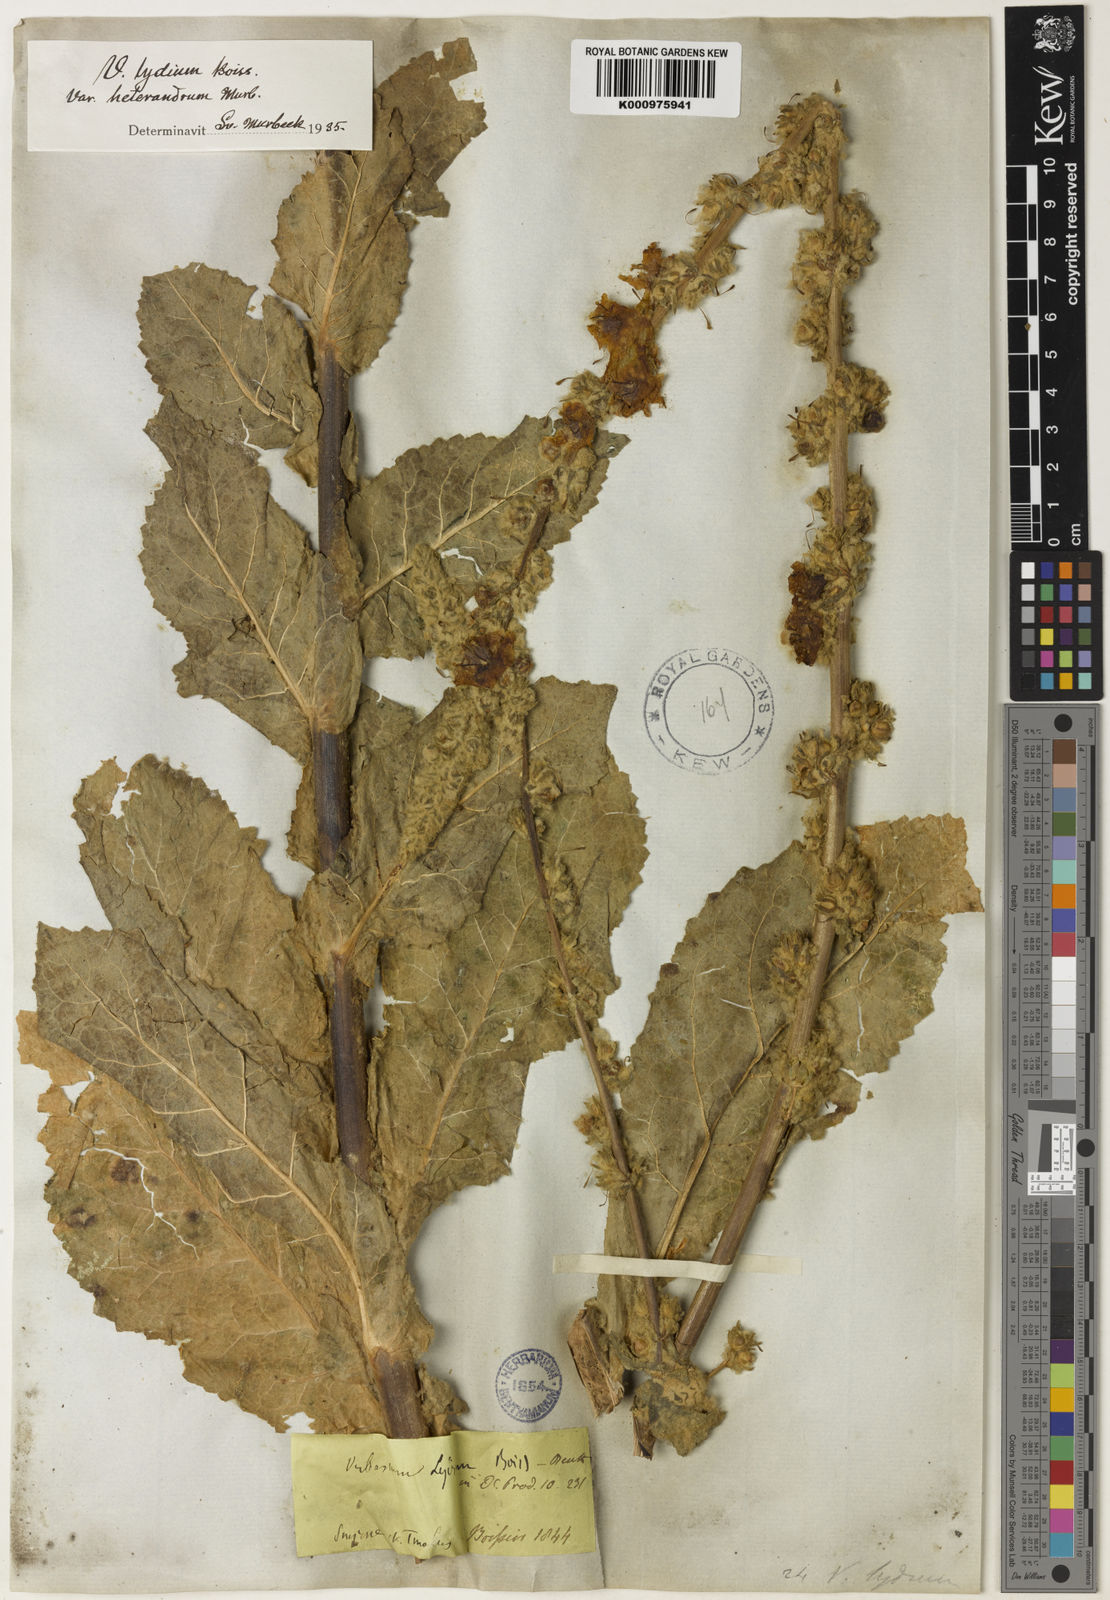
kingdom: Plantae
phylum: Tracheophyta
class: Magnoliopsida
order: Lamiales
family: Scrophulariaceae
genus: Verbascum
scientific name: Verbascum lydium
